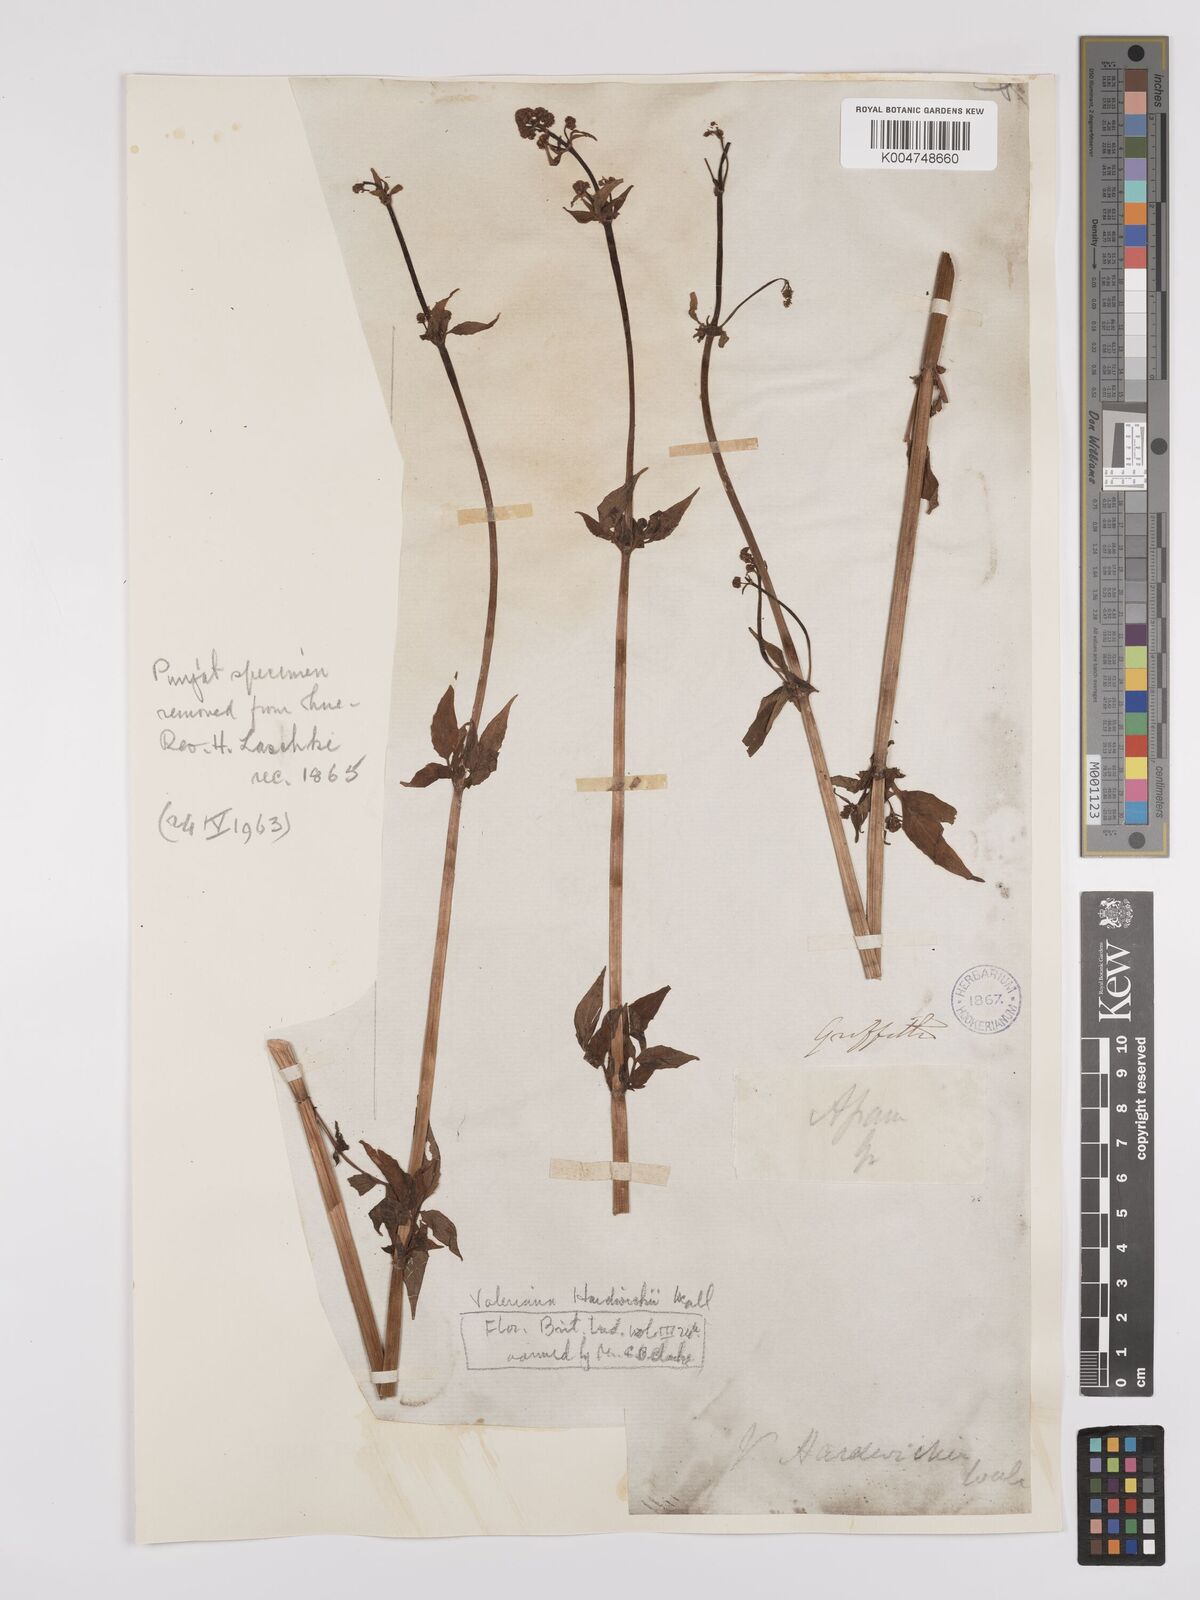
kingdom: Plantae
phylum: Tracheophyta
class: Magnoliopsida
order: Dipsacales
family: Caprifoliaceae
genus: Valeriana
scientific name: Valeriana hardwickei
